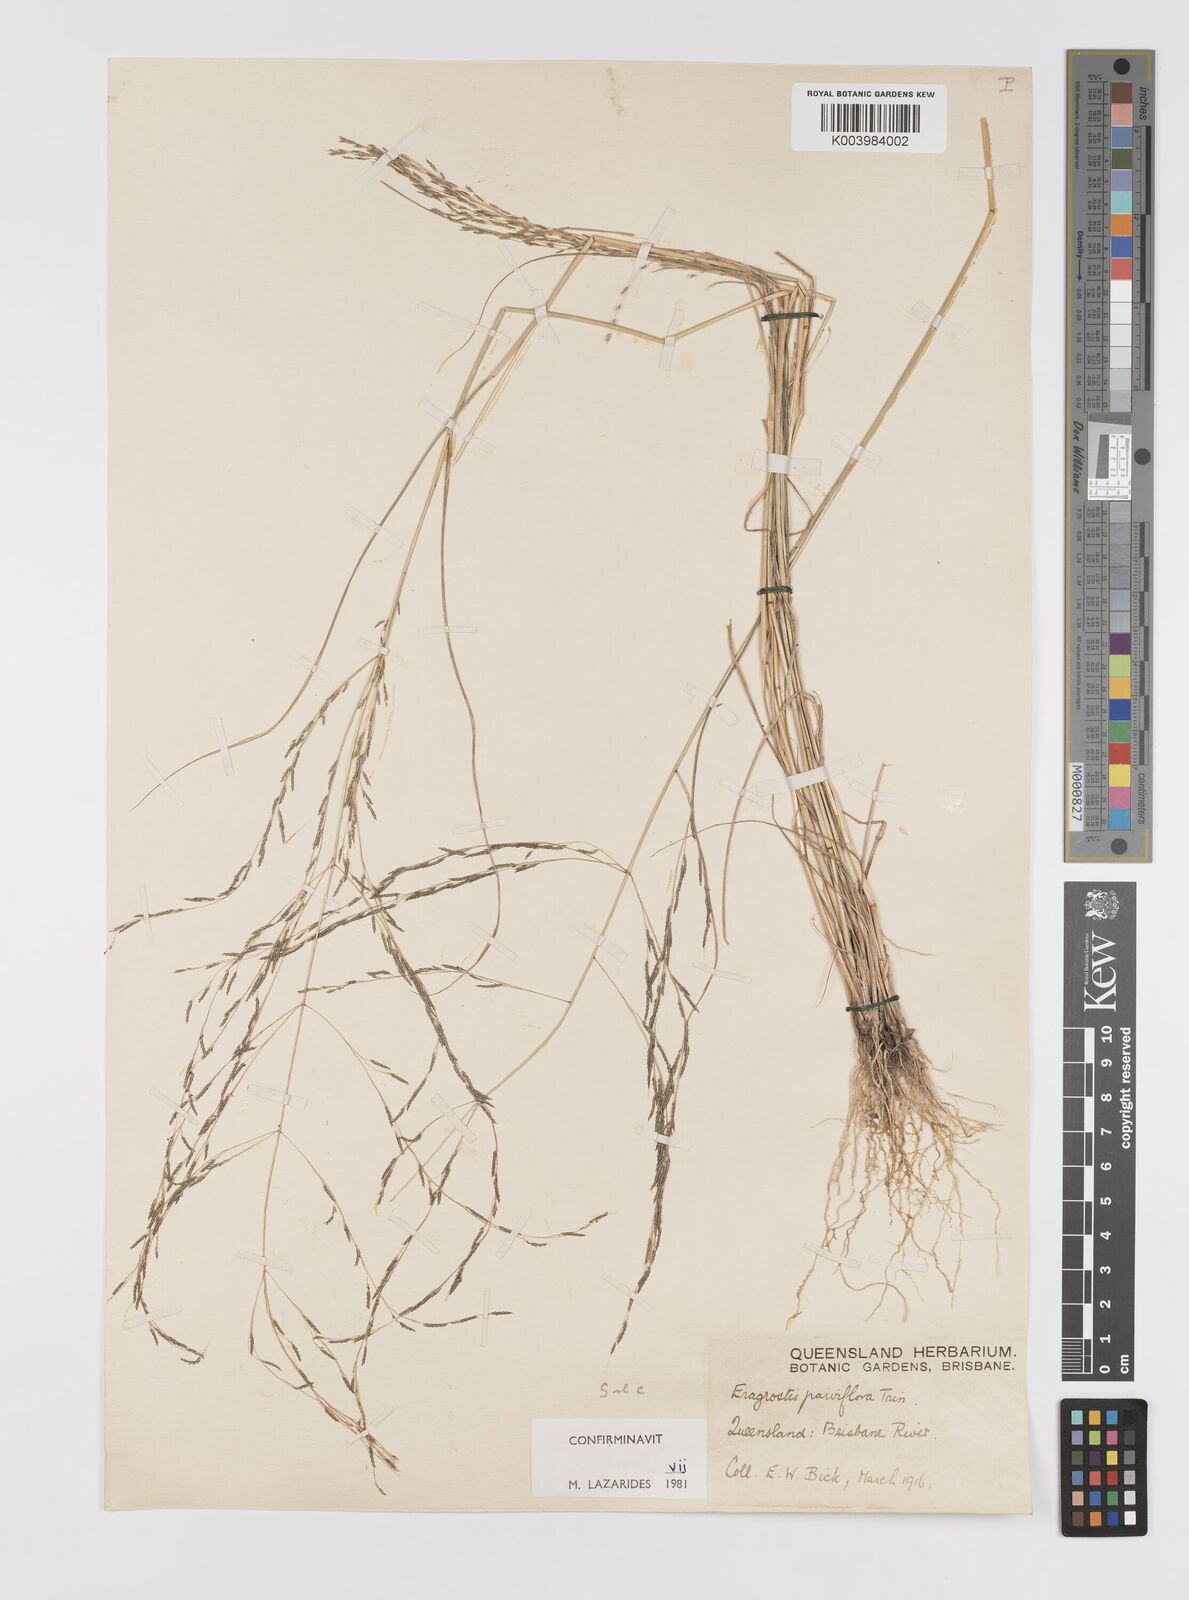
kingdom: Plantae
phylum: Tracheophyta
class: Liliopsida
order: Poales
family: Poaceae
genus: Eragrostis
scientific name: Eragrostis parviflora
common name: Weeping love-grass
